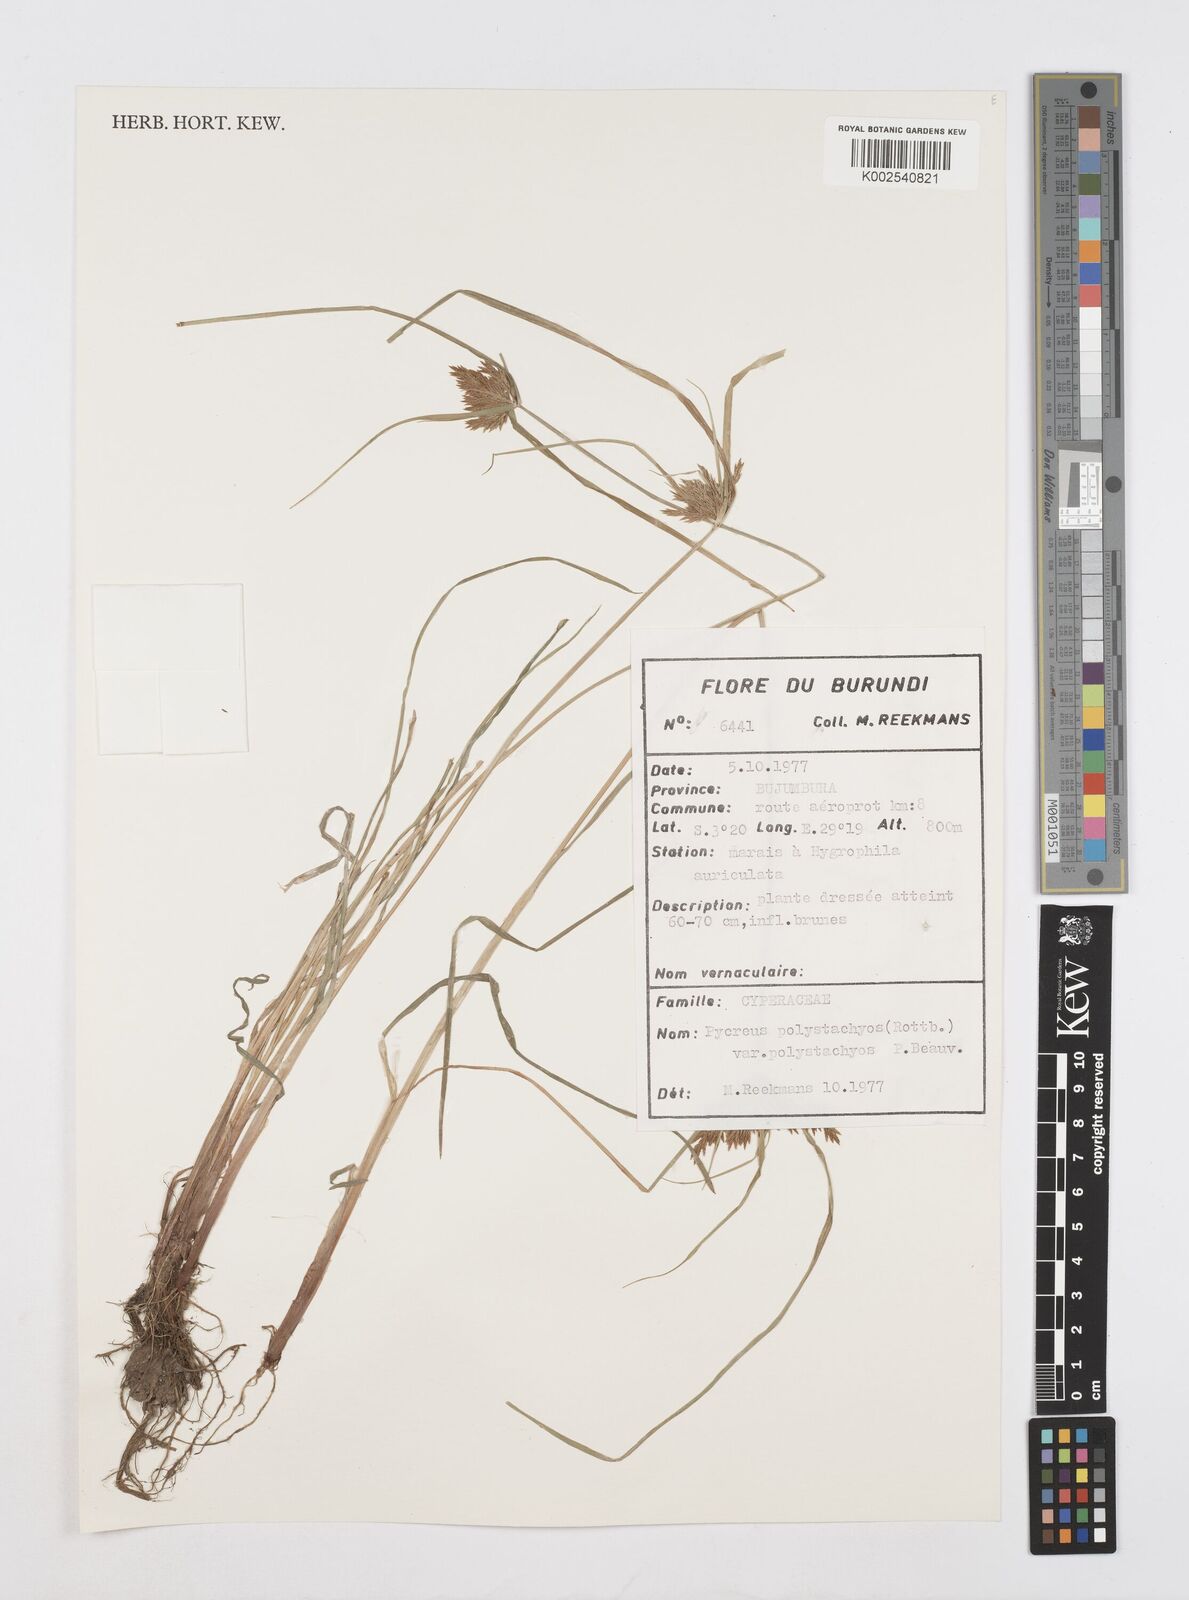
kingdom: Plantae
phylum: Tracheophyta
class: Liliopsida
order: Poales
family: Cyperaceae
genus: Cyperus
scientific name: Cyperus polystachyos
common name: Bunchy flat sedge
